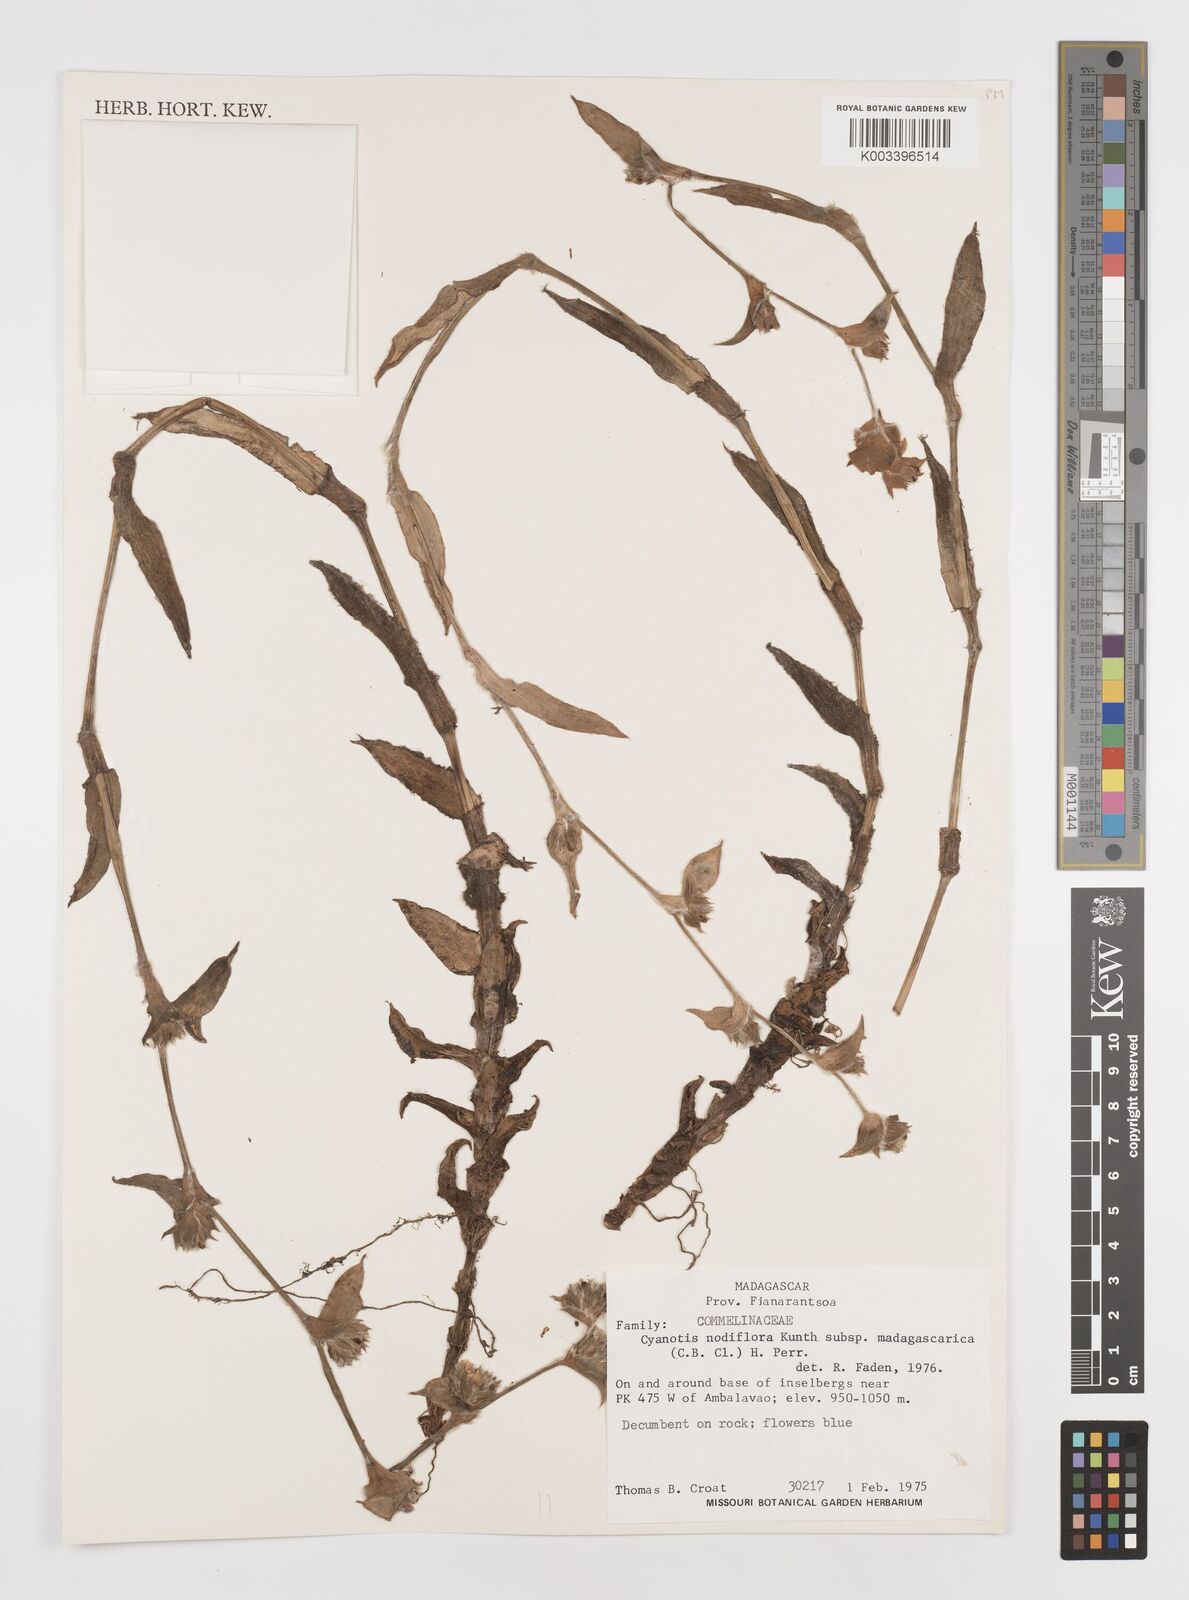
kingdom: Plantae
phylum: Tracheophyta
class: Liliopsida
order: Commelinales
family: Commelinaceae
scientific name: Commelinaceae
